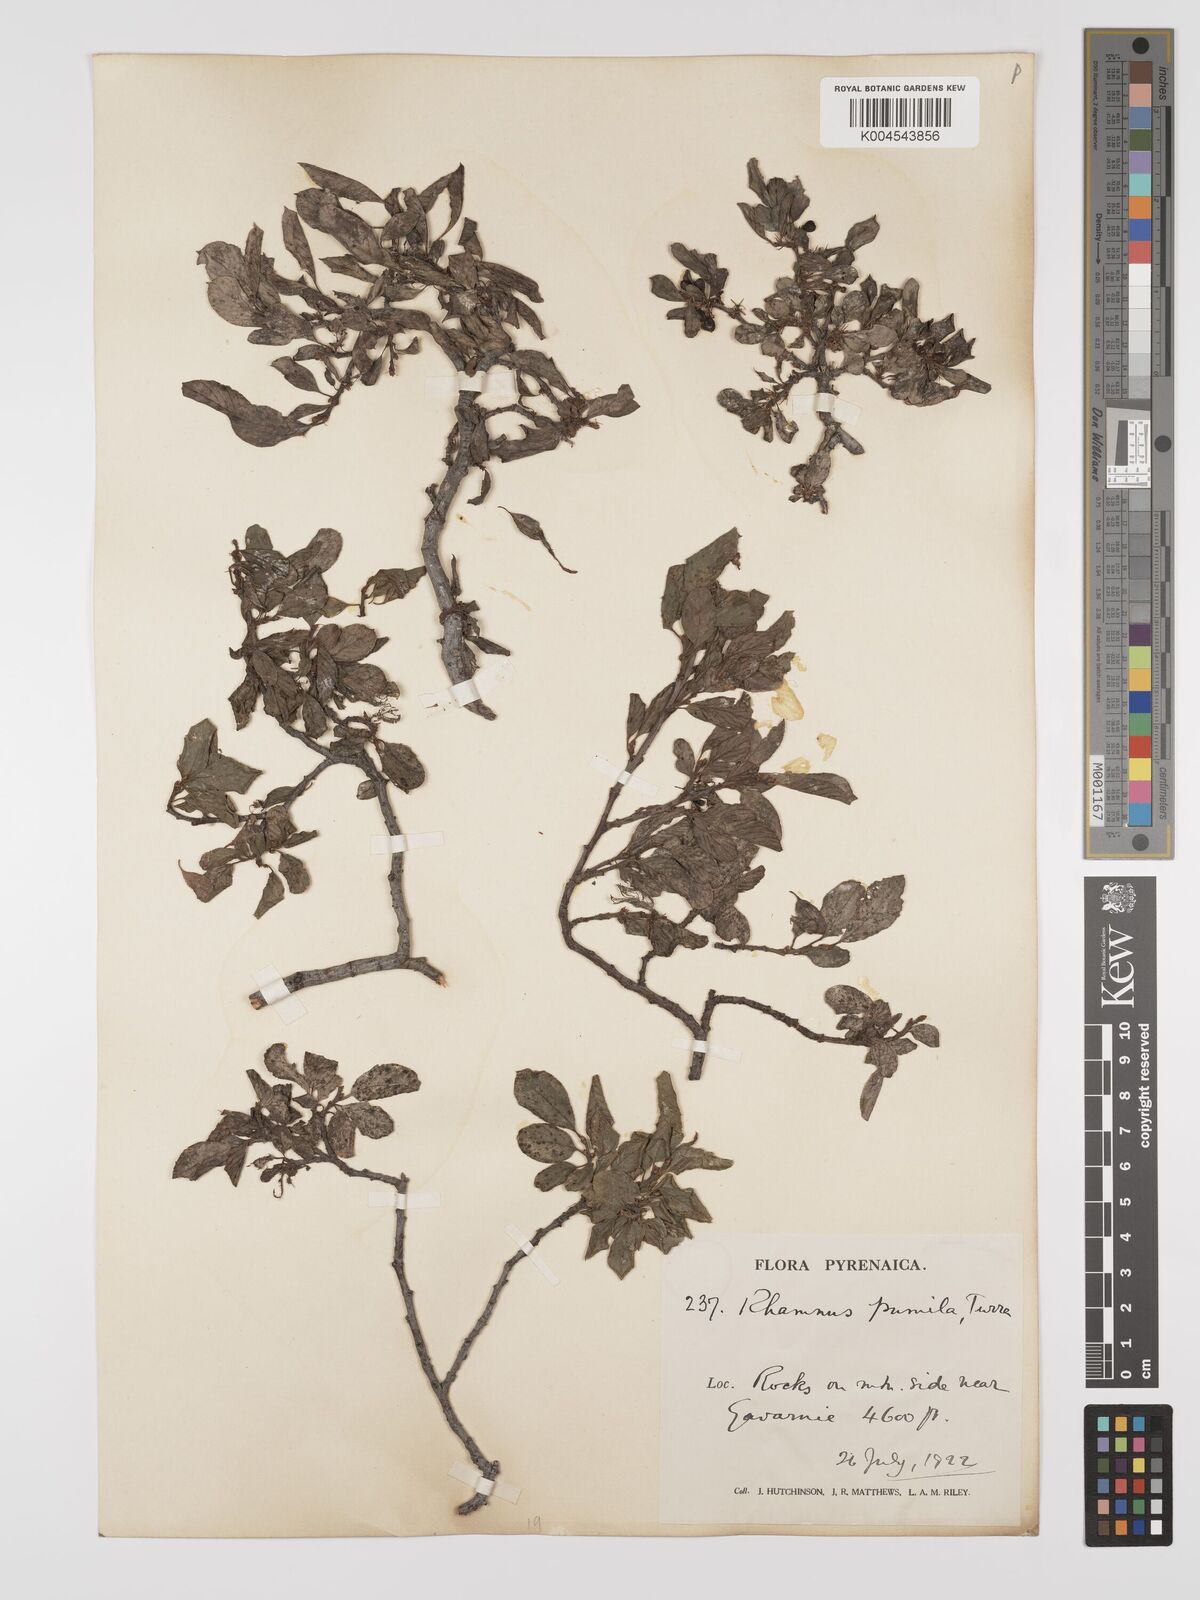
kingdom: Plantae
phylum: Tracheophyta
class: Magnoliopsida
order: Rosales
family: Rhamnaceae
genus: Rhamnus
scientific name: Rhamnus
